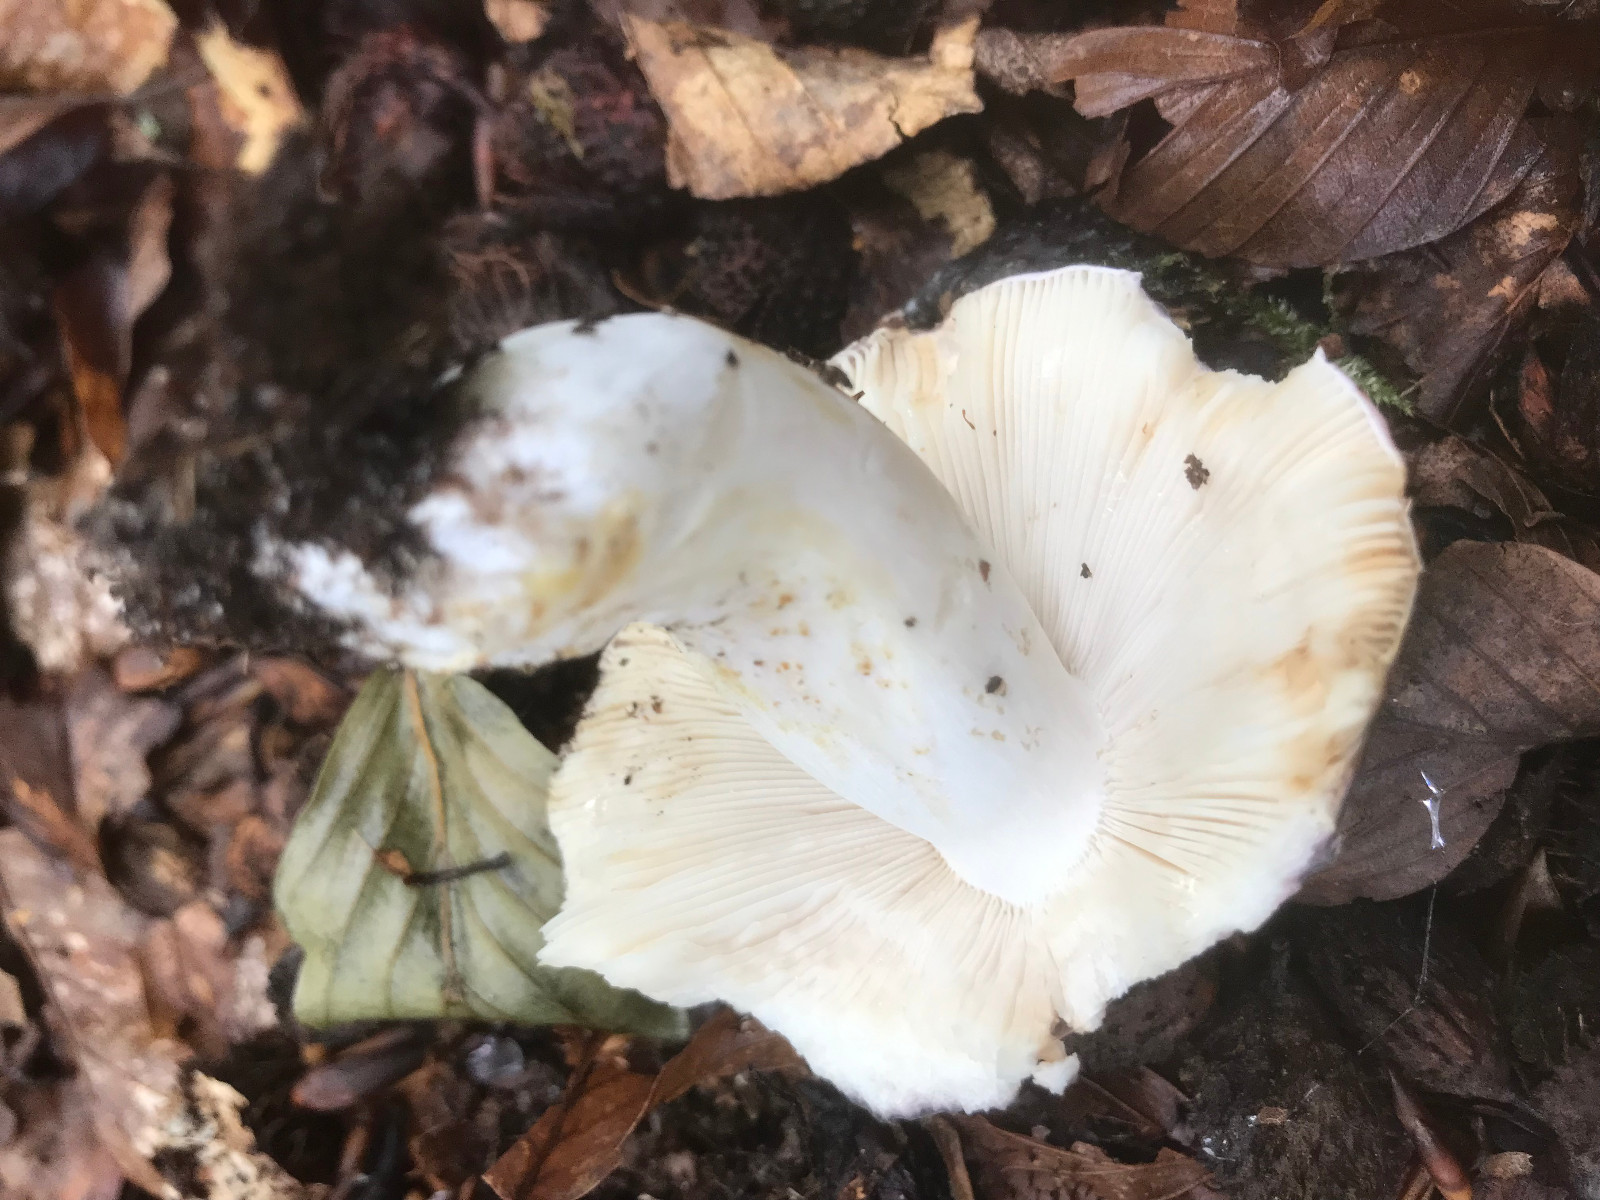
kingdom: Fungi
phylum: Basidiomycota
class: Agaricomycetes
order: Russulales
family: Russulaceae
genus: Russula
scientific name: Russula cyanoxantha
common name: broget skørhat
